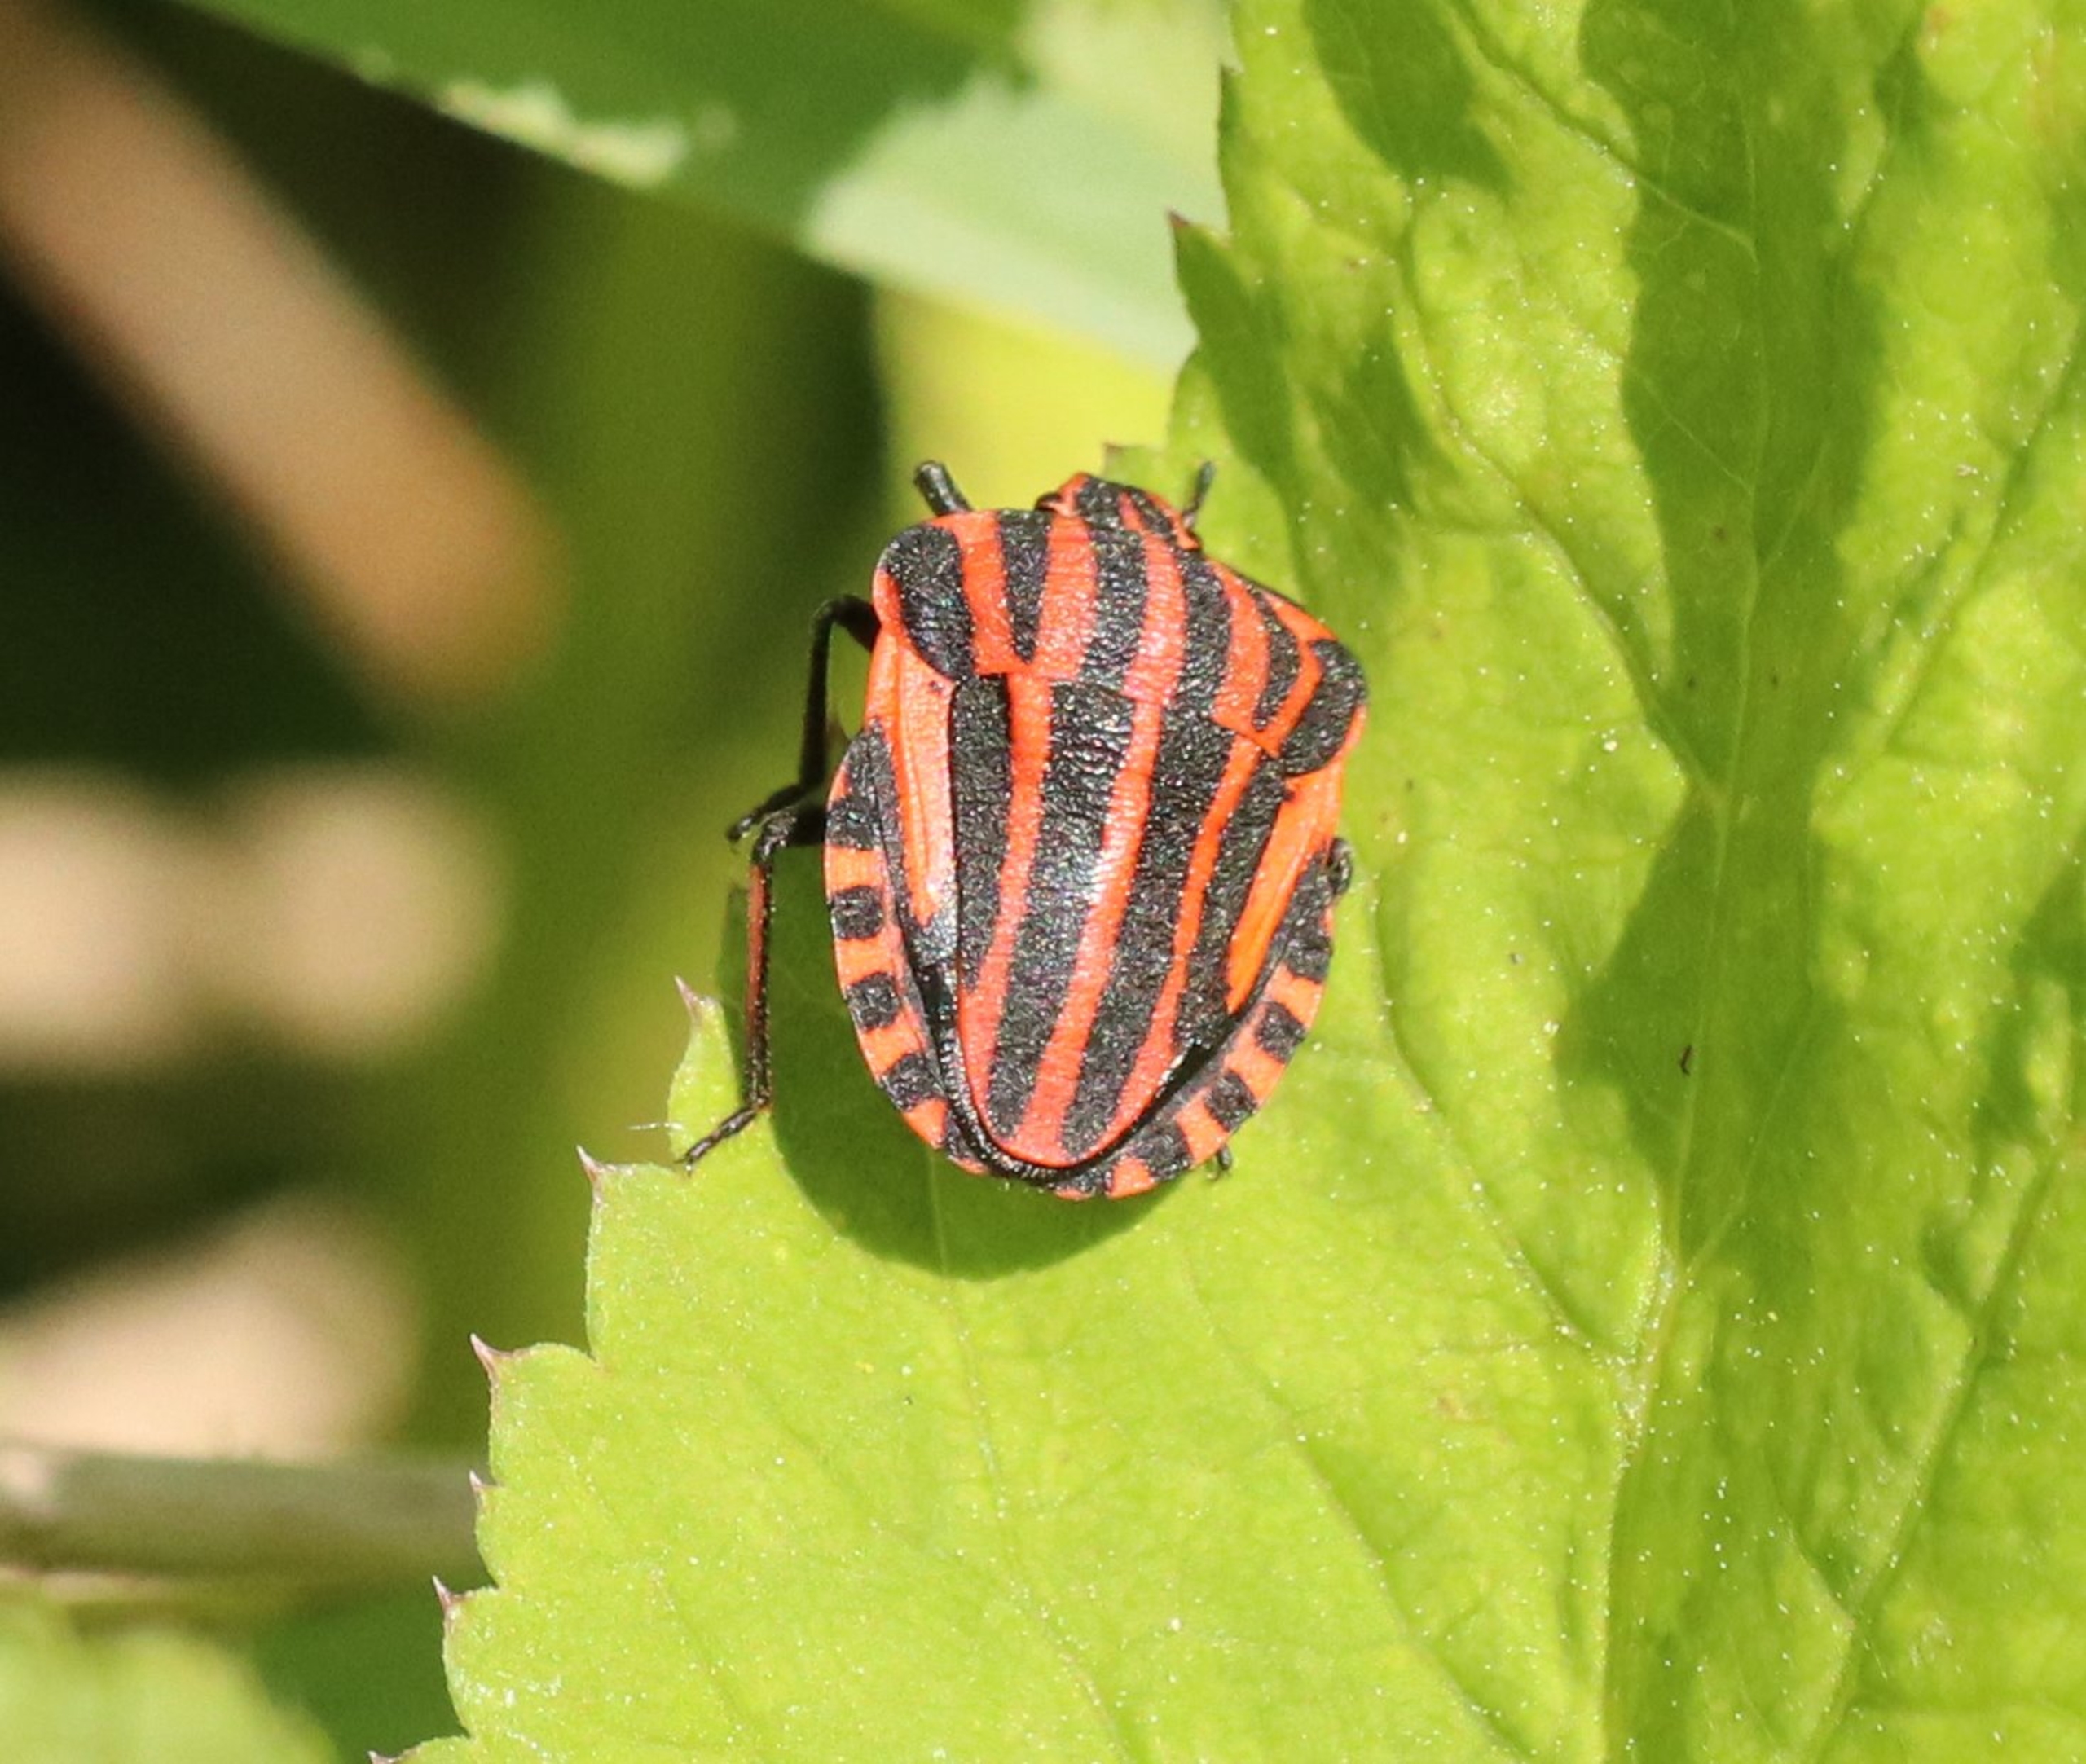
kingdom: Animalia
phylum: Arthropoda
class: Insecta
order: Hemiptera
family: Pentatomidae
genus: Graphosoma
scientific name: Graphosoma italicum
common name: Stribetæge
